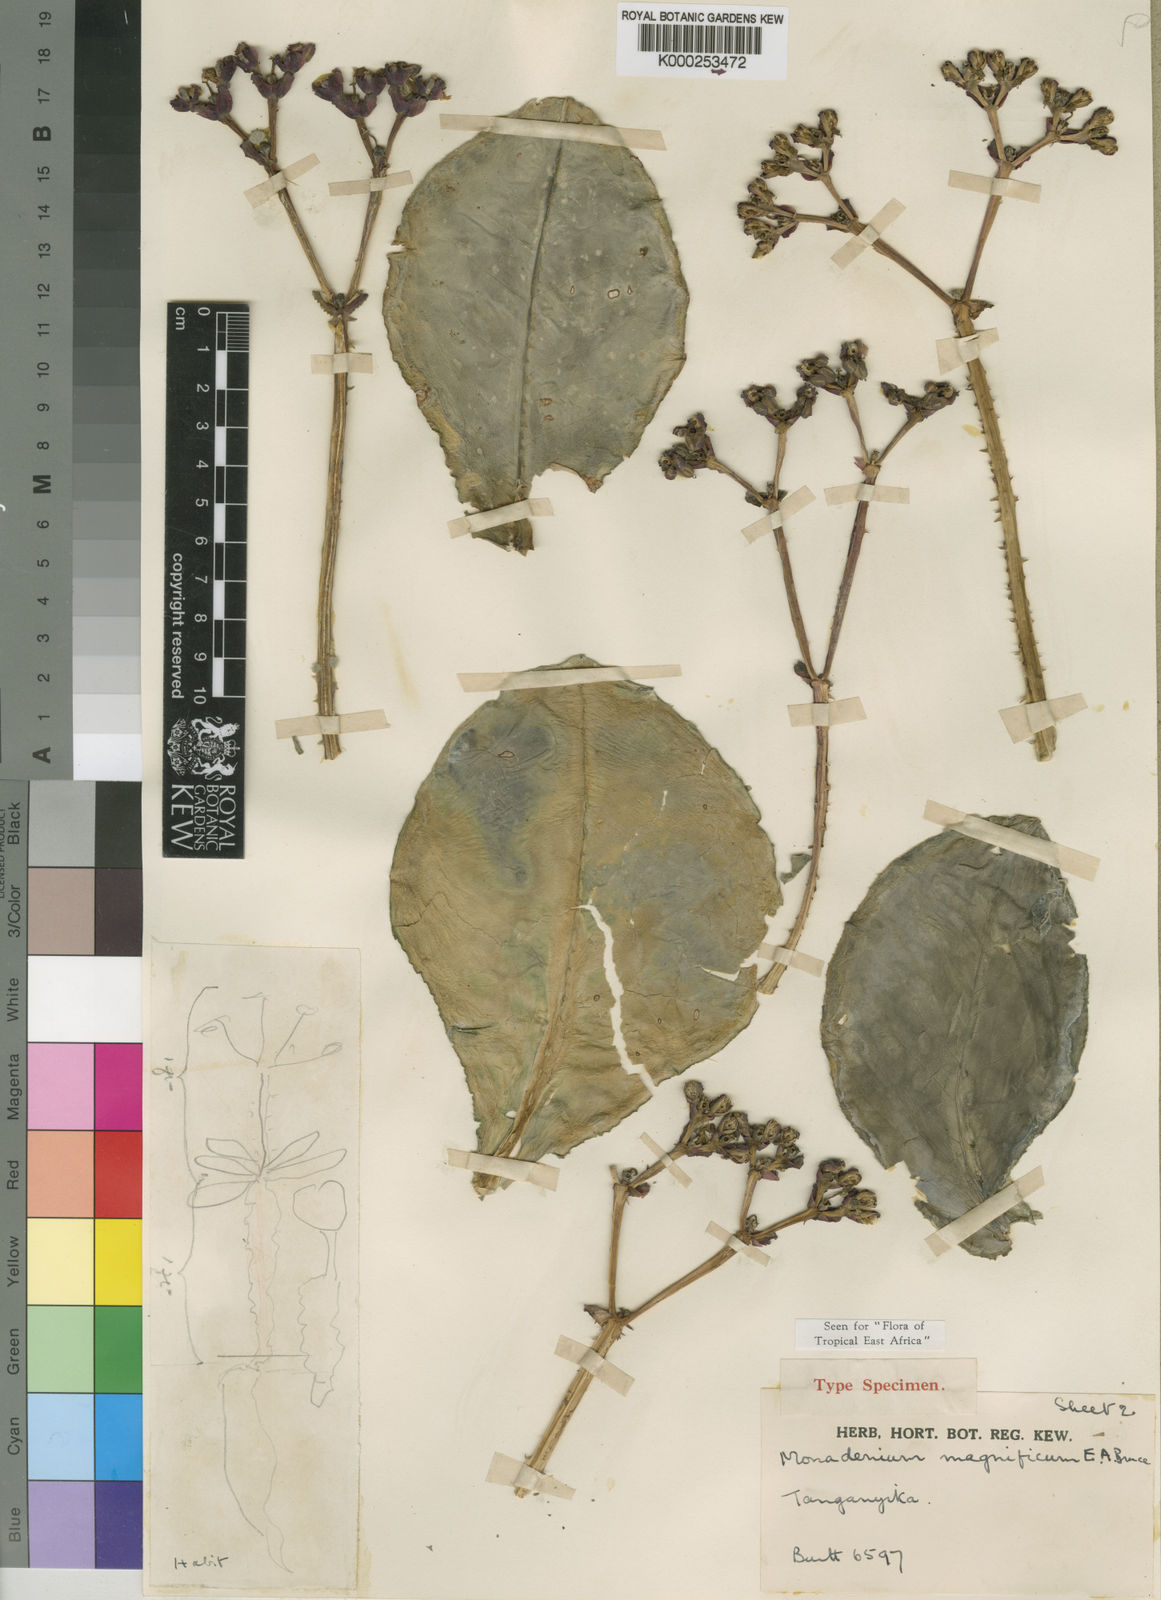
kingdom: Plantae
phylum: Tracheophyta
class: Magnoliopsida
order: Malpighiales
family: Euphorbiaceae
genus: Euphorbia
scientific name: Euphorbia magnifica
